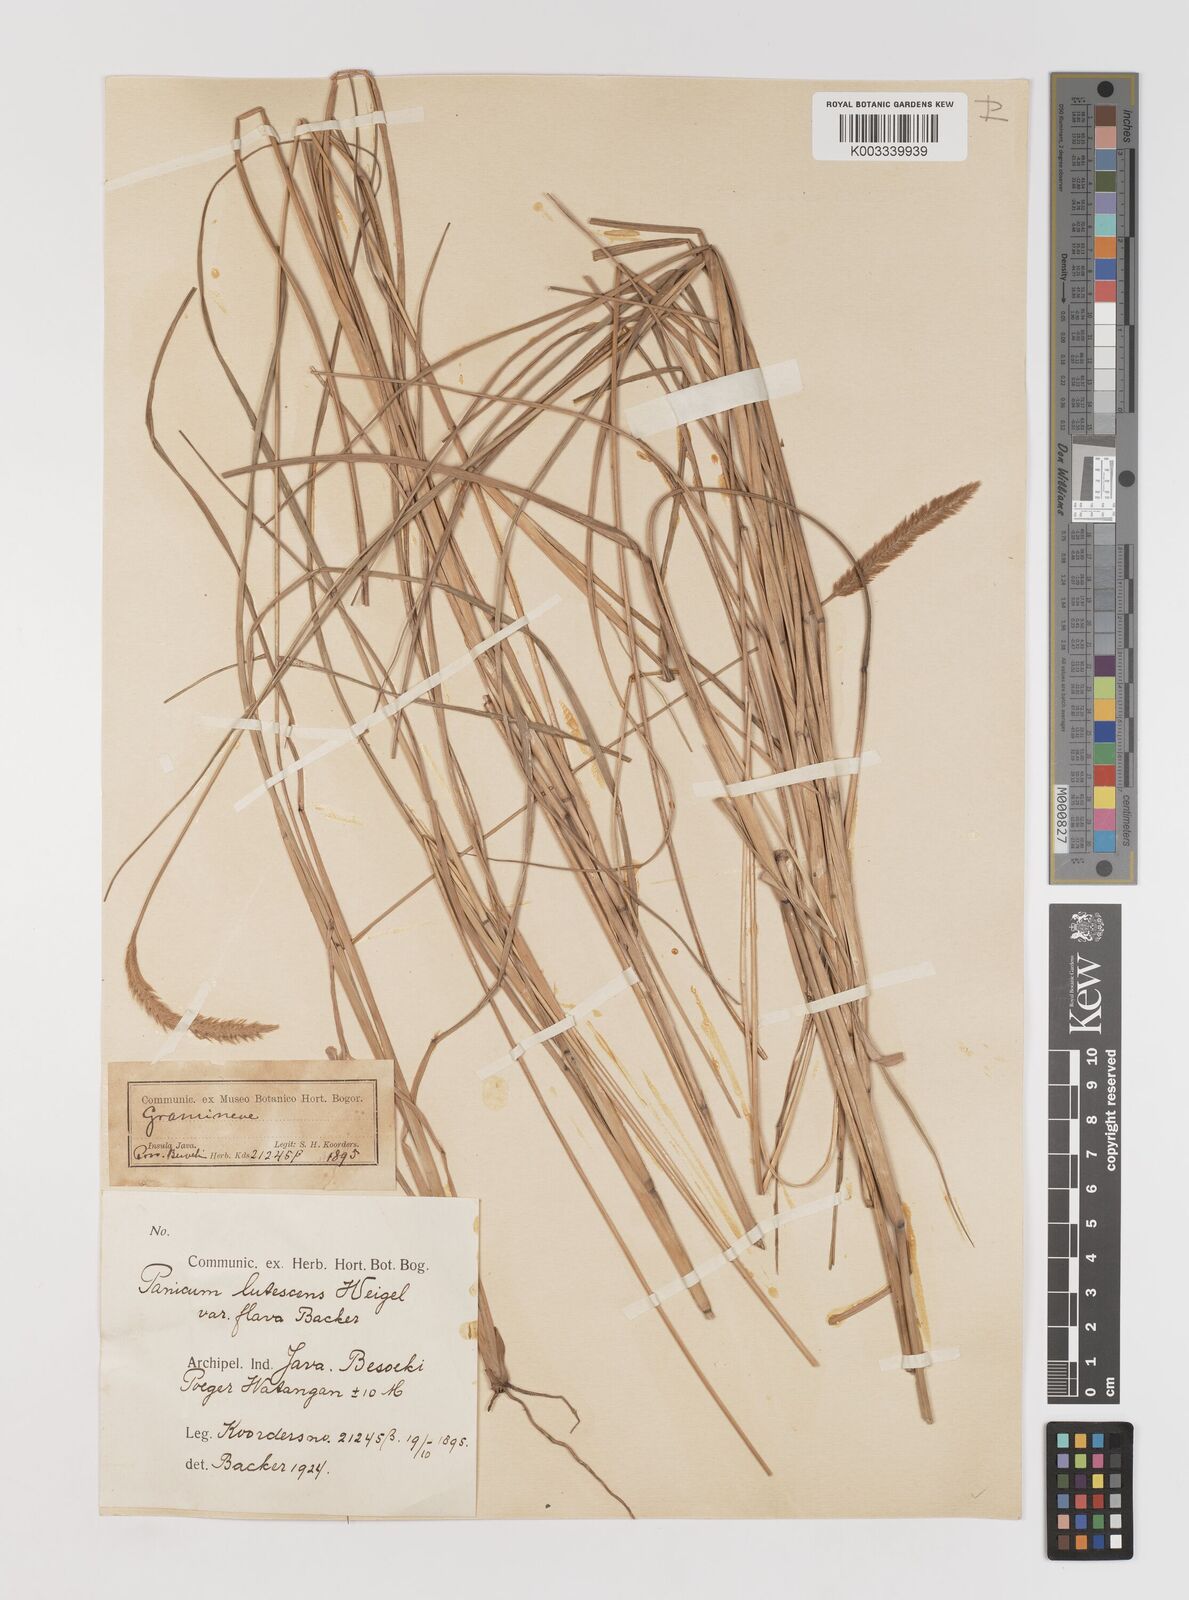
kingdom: Plantae
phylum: Tracheophyta
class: Liliopsida
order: Poales
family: Poaceae
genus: Setaria
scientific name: Setaria parviflora
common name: Knotroot bristle-grass
